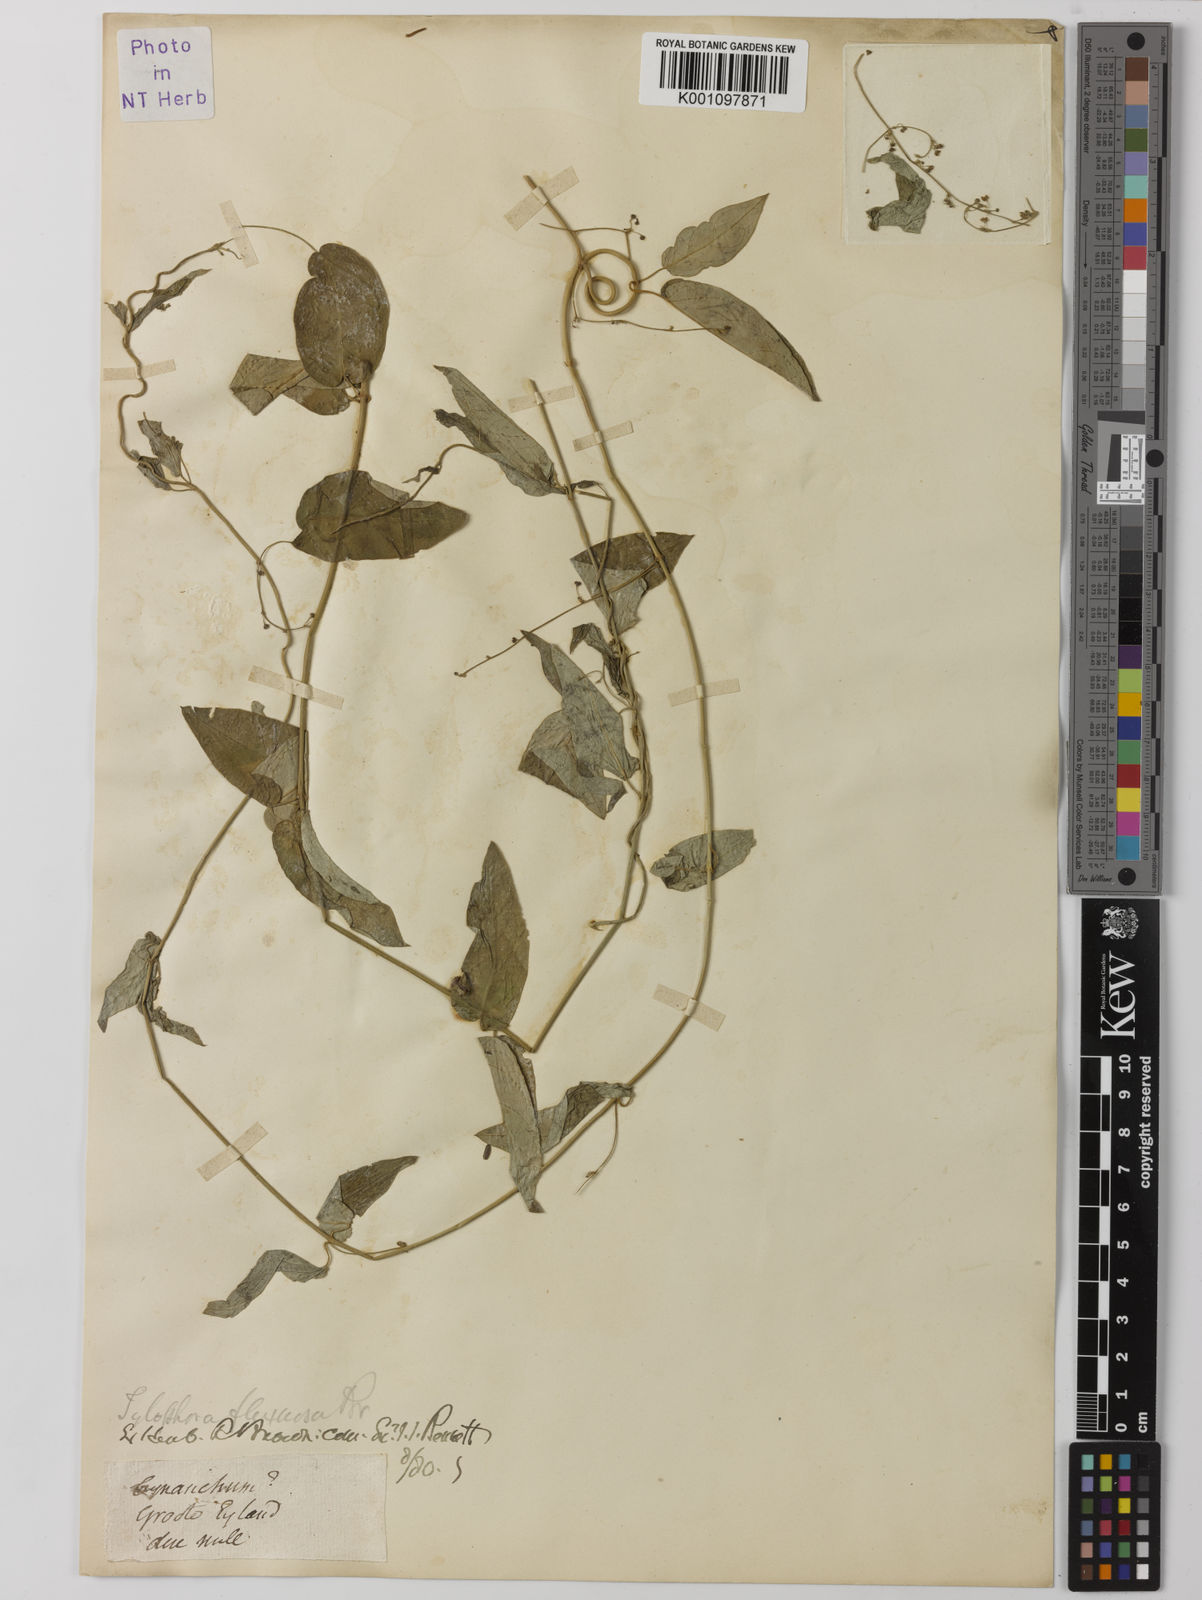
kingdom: Plantae
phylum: Tracheophyta
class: Magnoliopsida
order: Gentianales
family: Apocynaceae
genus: Vincetoxicum
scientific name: Vincetoxicum flexuosum
